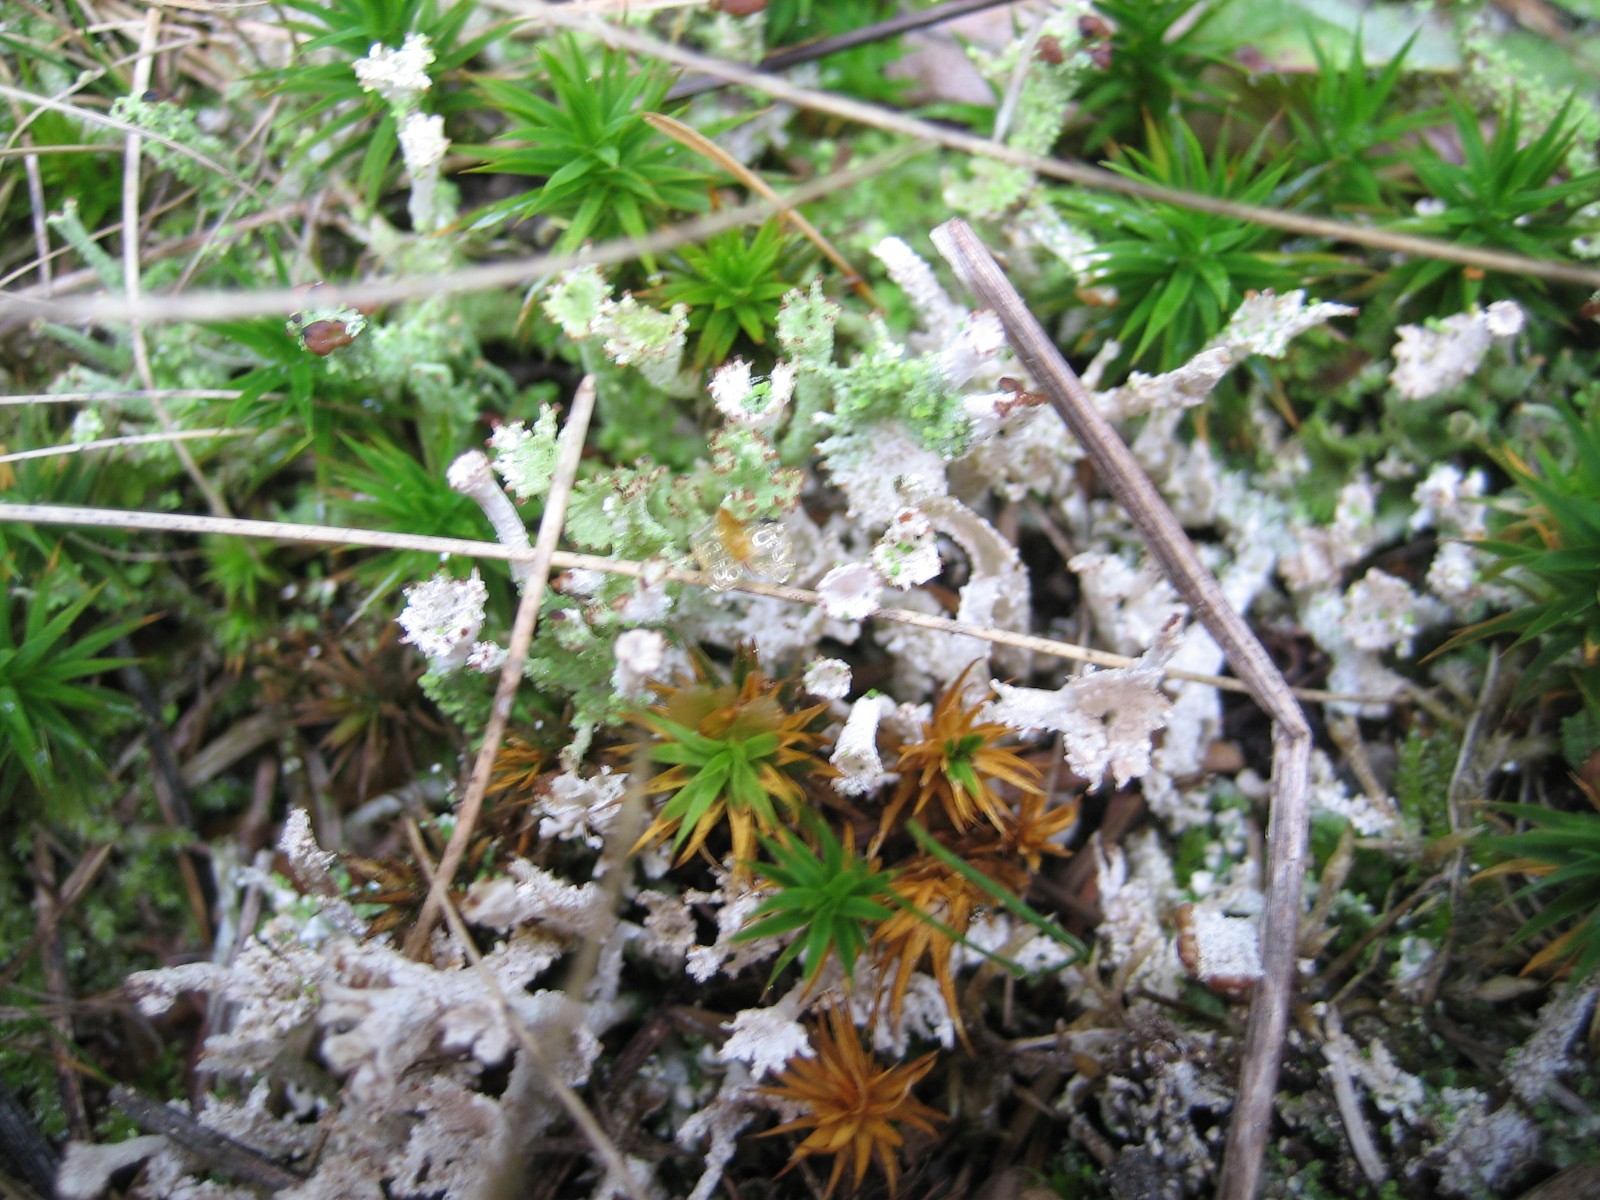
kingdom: Fungi
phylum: Ascomycota
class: Lecanoromycetes
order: Lecanorales
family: Cladoniaceae
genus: Cladonia
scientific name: Cladonia ramulosa
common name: kliddet bægerlav
